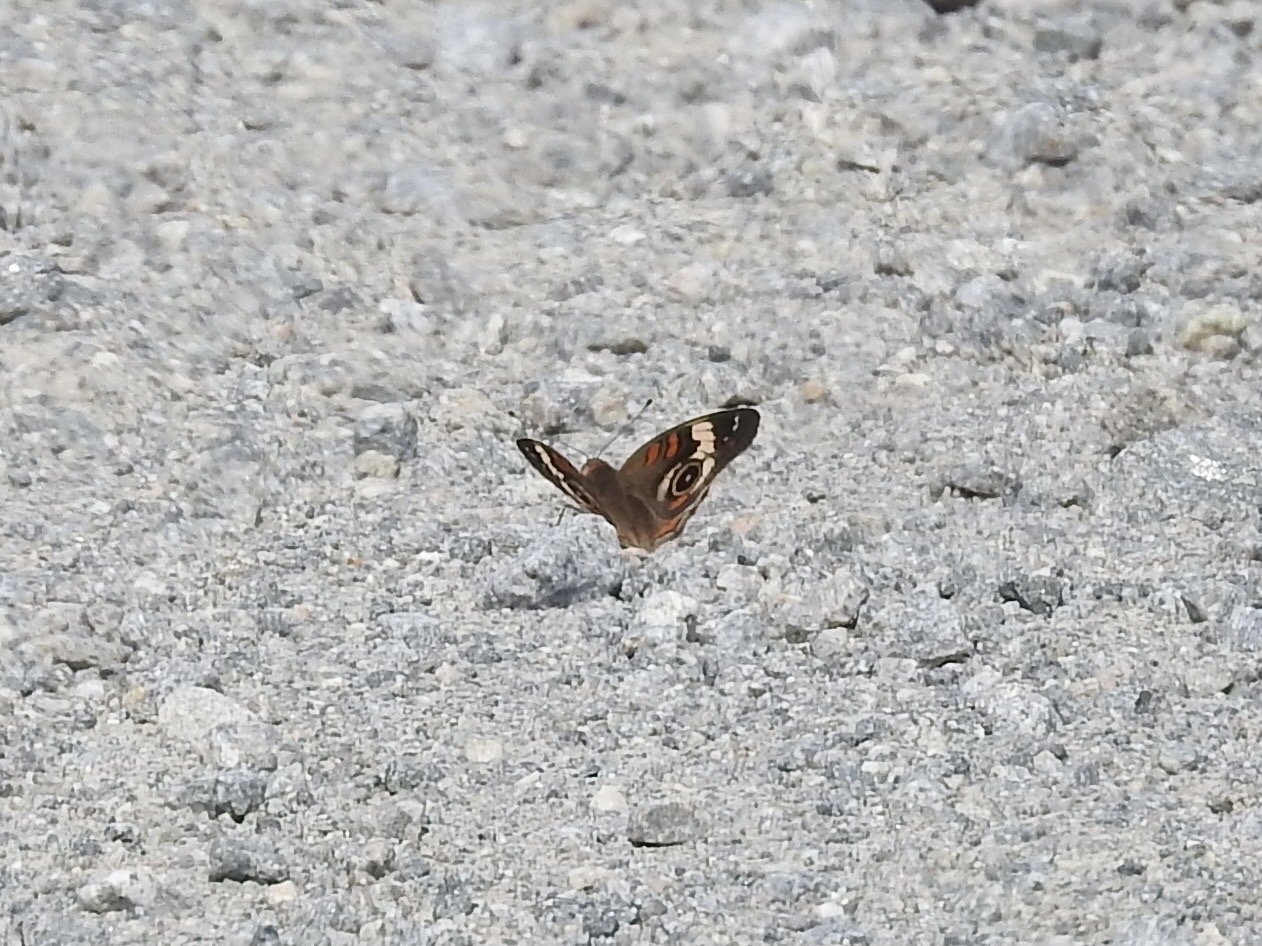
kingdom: Animalia
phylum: Arthropoda
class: Insecta
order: Lepidoptera
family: Nymphalidae
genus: Junonia
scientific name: Junonia coenia
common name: Common Buckeye
